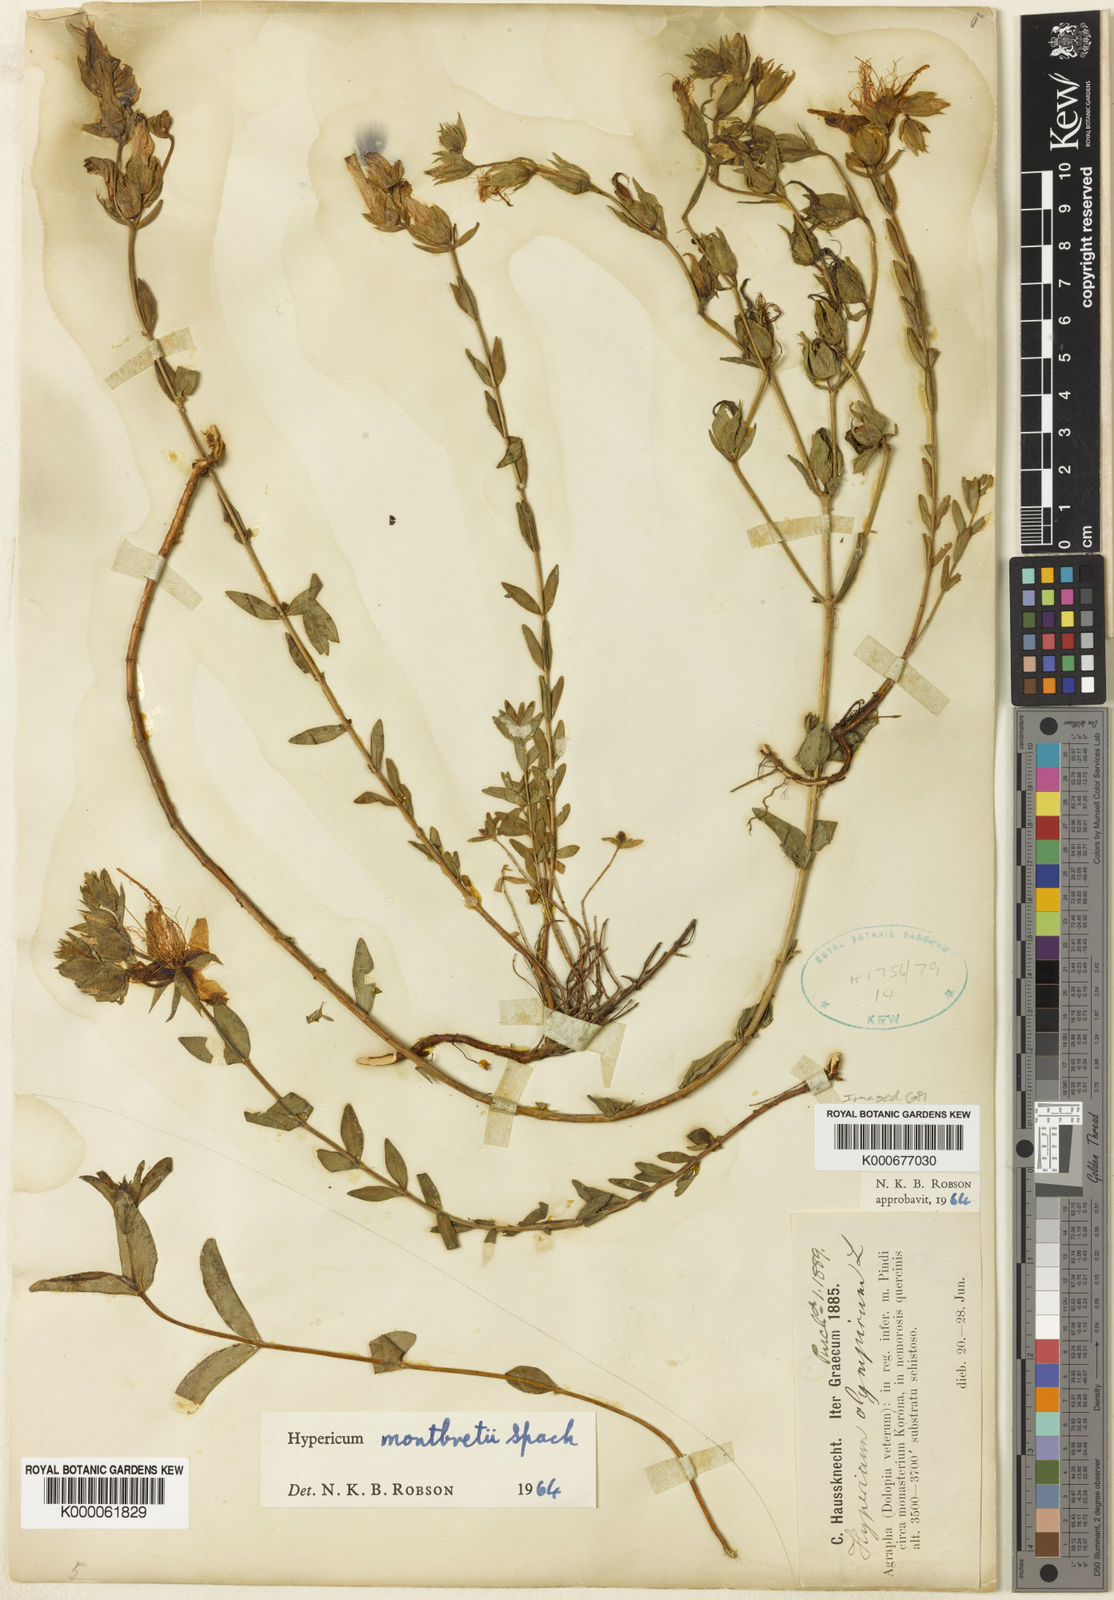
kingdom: Plantae
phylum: Tracheophyta
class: Magnoliopsida
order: Malpighiales
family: Hypericaceae
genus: Hypericum
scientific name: Hypericum olympicum
